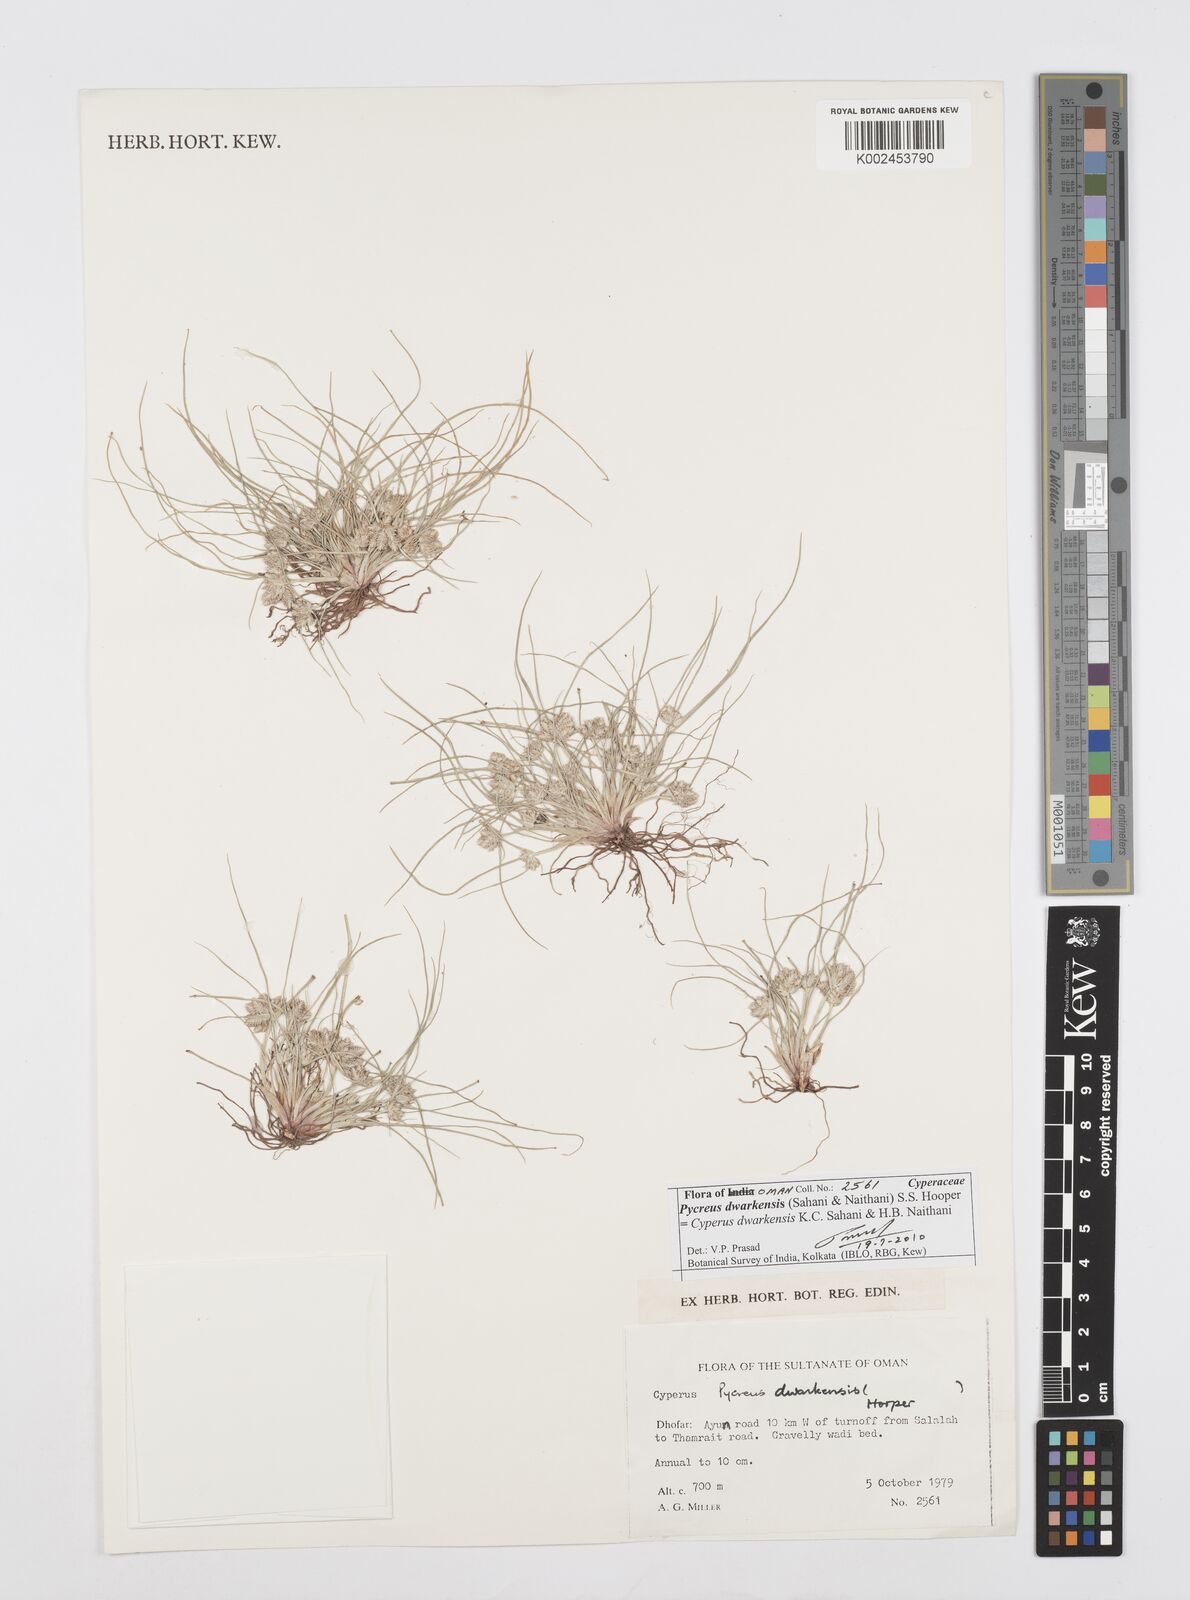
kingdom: Plantae
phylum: Tracheophyta
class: Liliopsida
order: Poales
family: Cyperaceae
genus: Cyperus
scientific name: Cyperus dwarkensis
